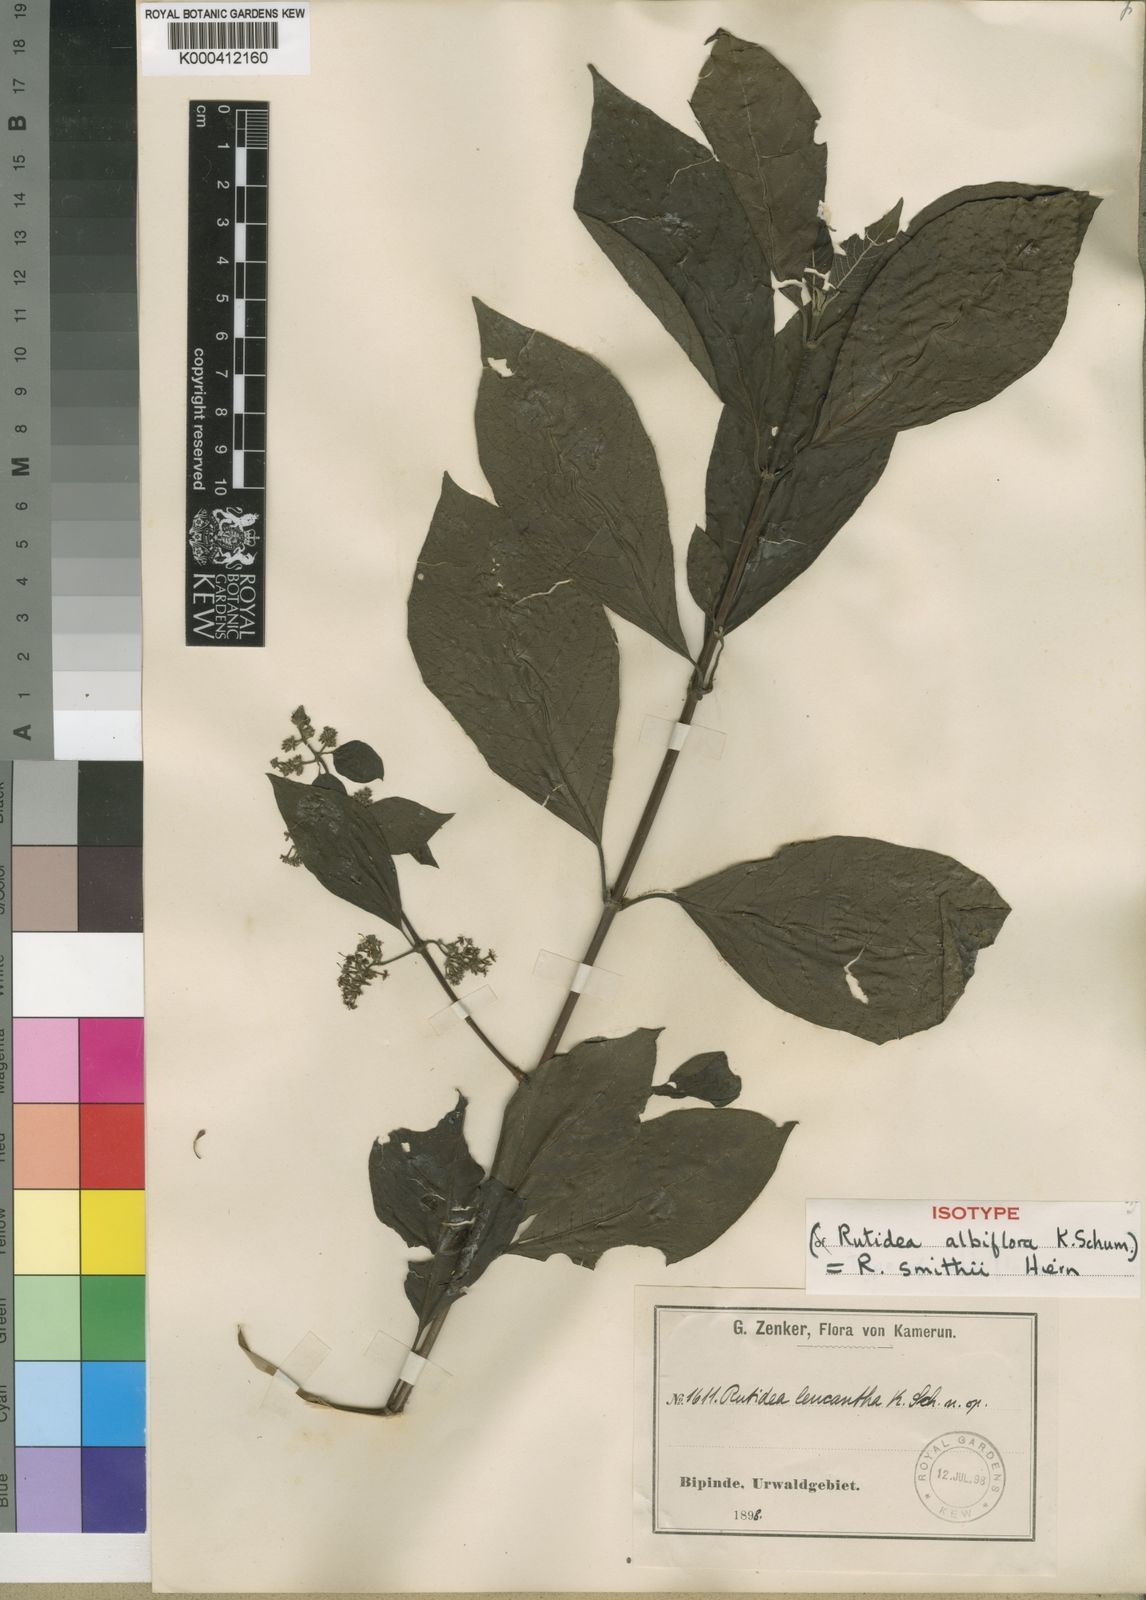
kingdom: Plantae
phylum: Tracheophyta
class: Magnoliopsida
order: Gentianales
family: Rubiaceae
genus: Rutidea
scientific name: Rutidea smithii
